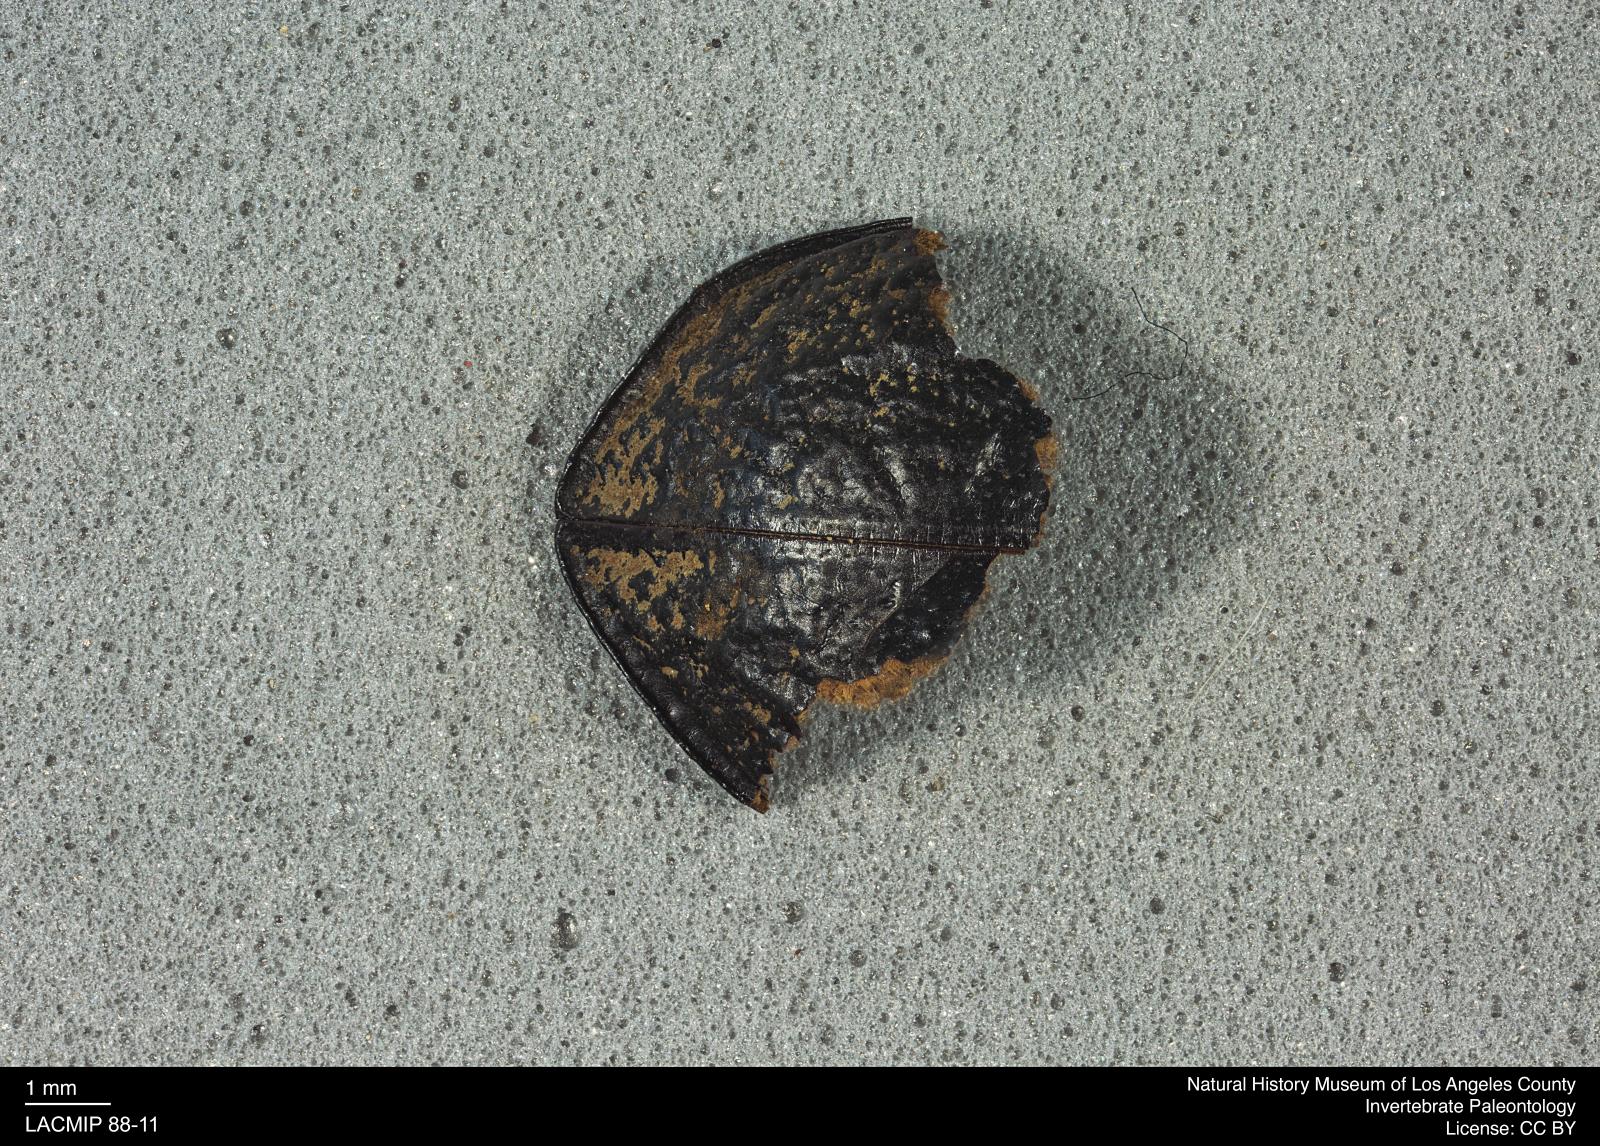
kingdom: Animalia
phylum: Arthropoda
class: Insecta
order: Coleoptera
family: Tenebrionidae
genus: Coniontis
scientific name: Coniontis abdominalis
